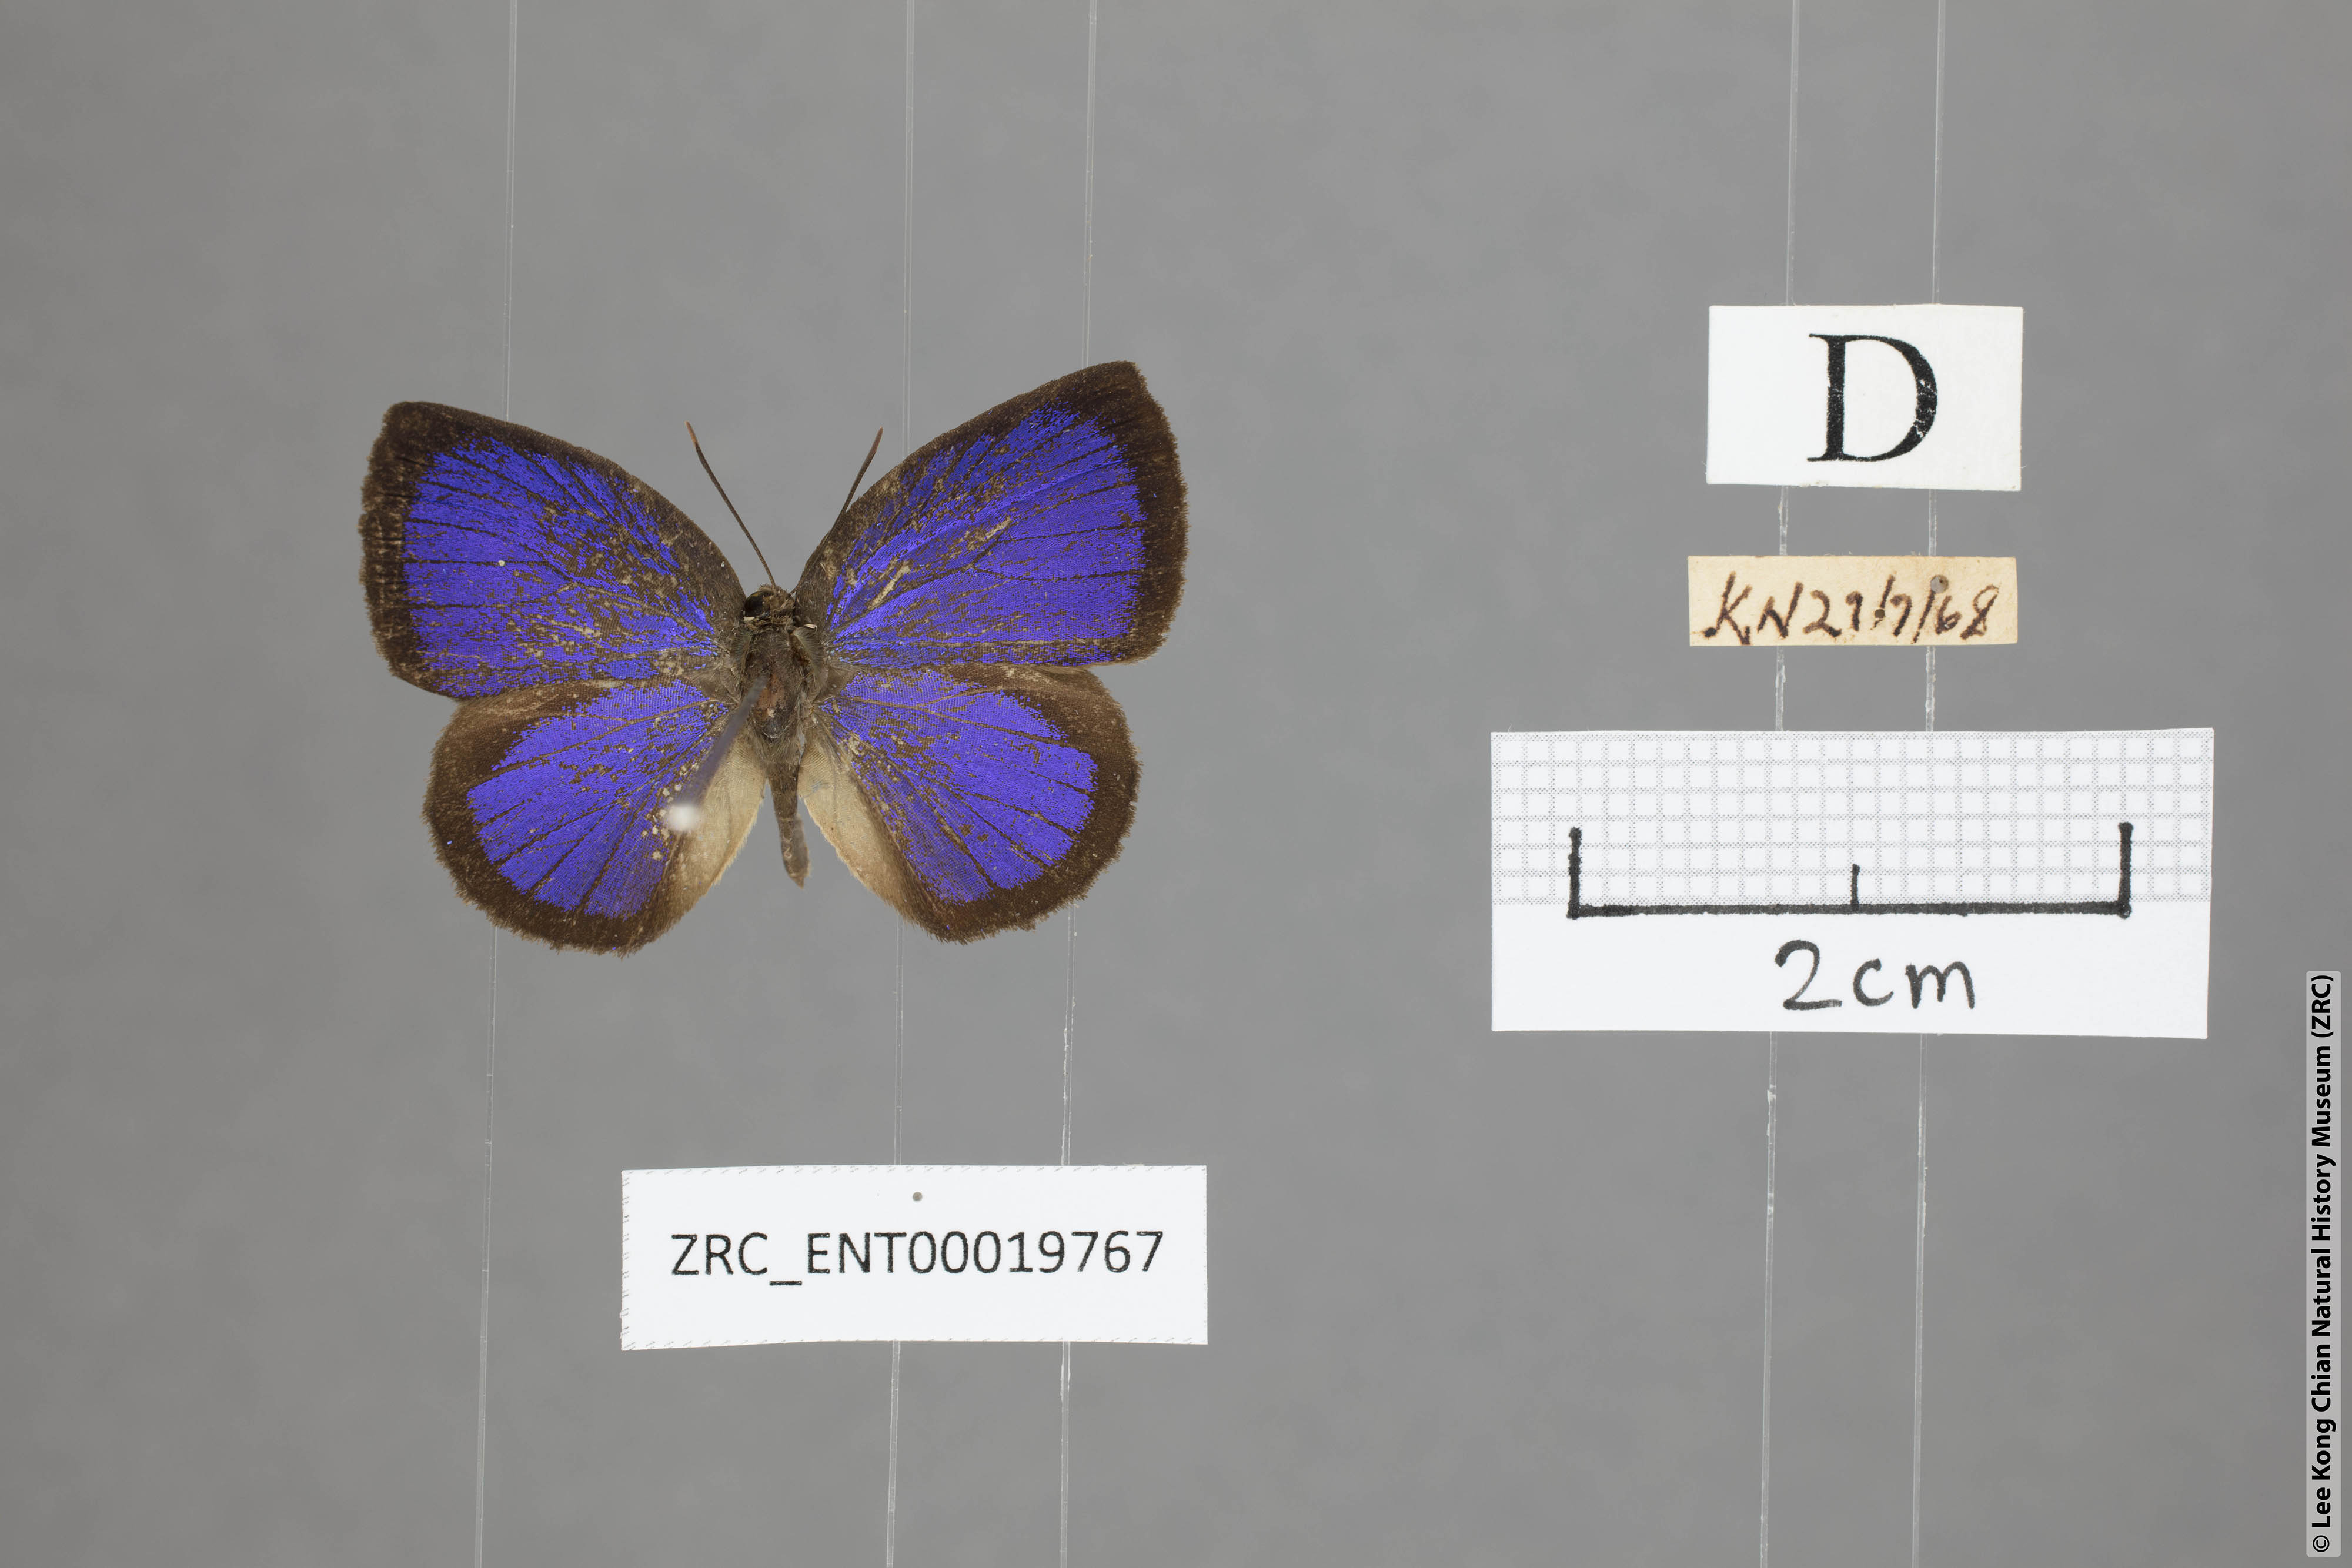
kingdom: Animalia
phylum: Arthropoda
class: Insecta
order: Lepidoptera
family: Lycaenidae
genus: Arhopala
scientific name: Arhopala perimuta
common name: Yellowdisc oakblue
